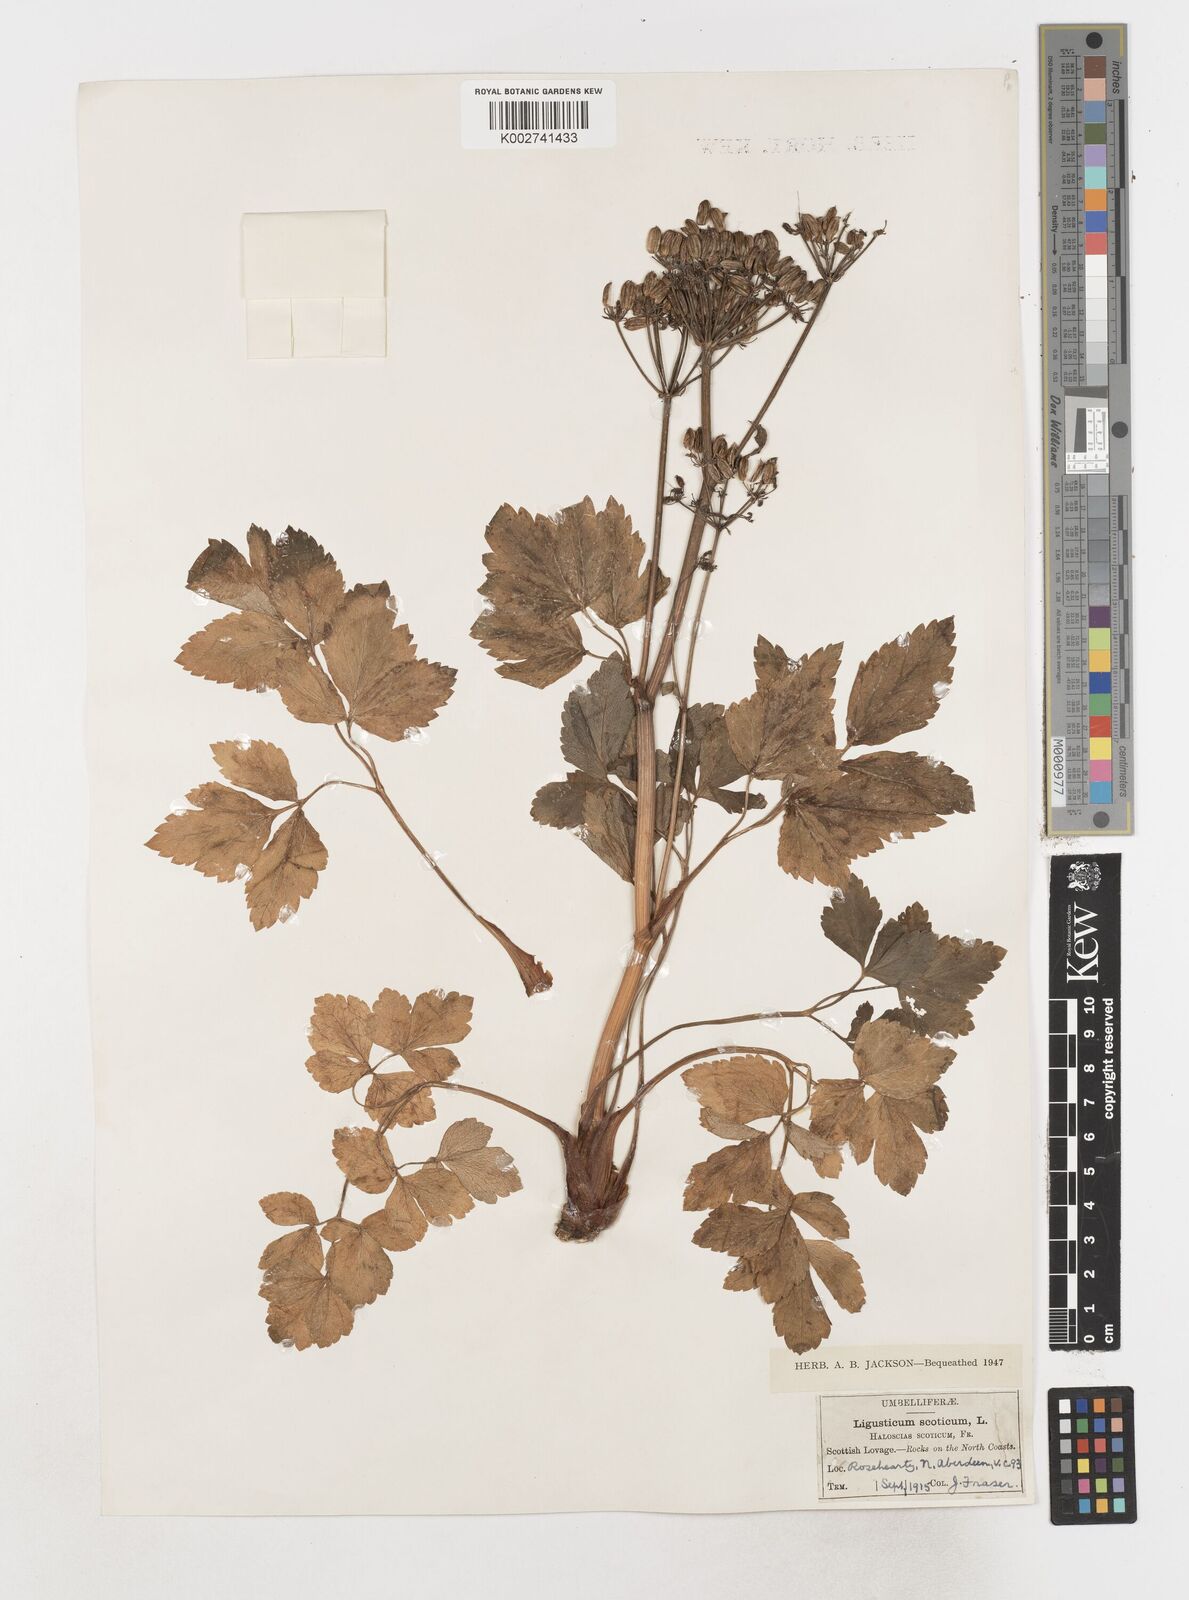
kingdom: Plantae
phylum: Tracheophyta
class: Magnoliopsida
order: Apiales
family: Apiaceae
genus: Ligusticum
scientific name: Ligusticum scothicum
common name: Beach lovage
